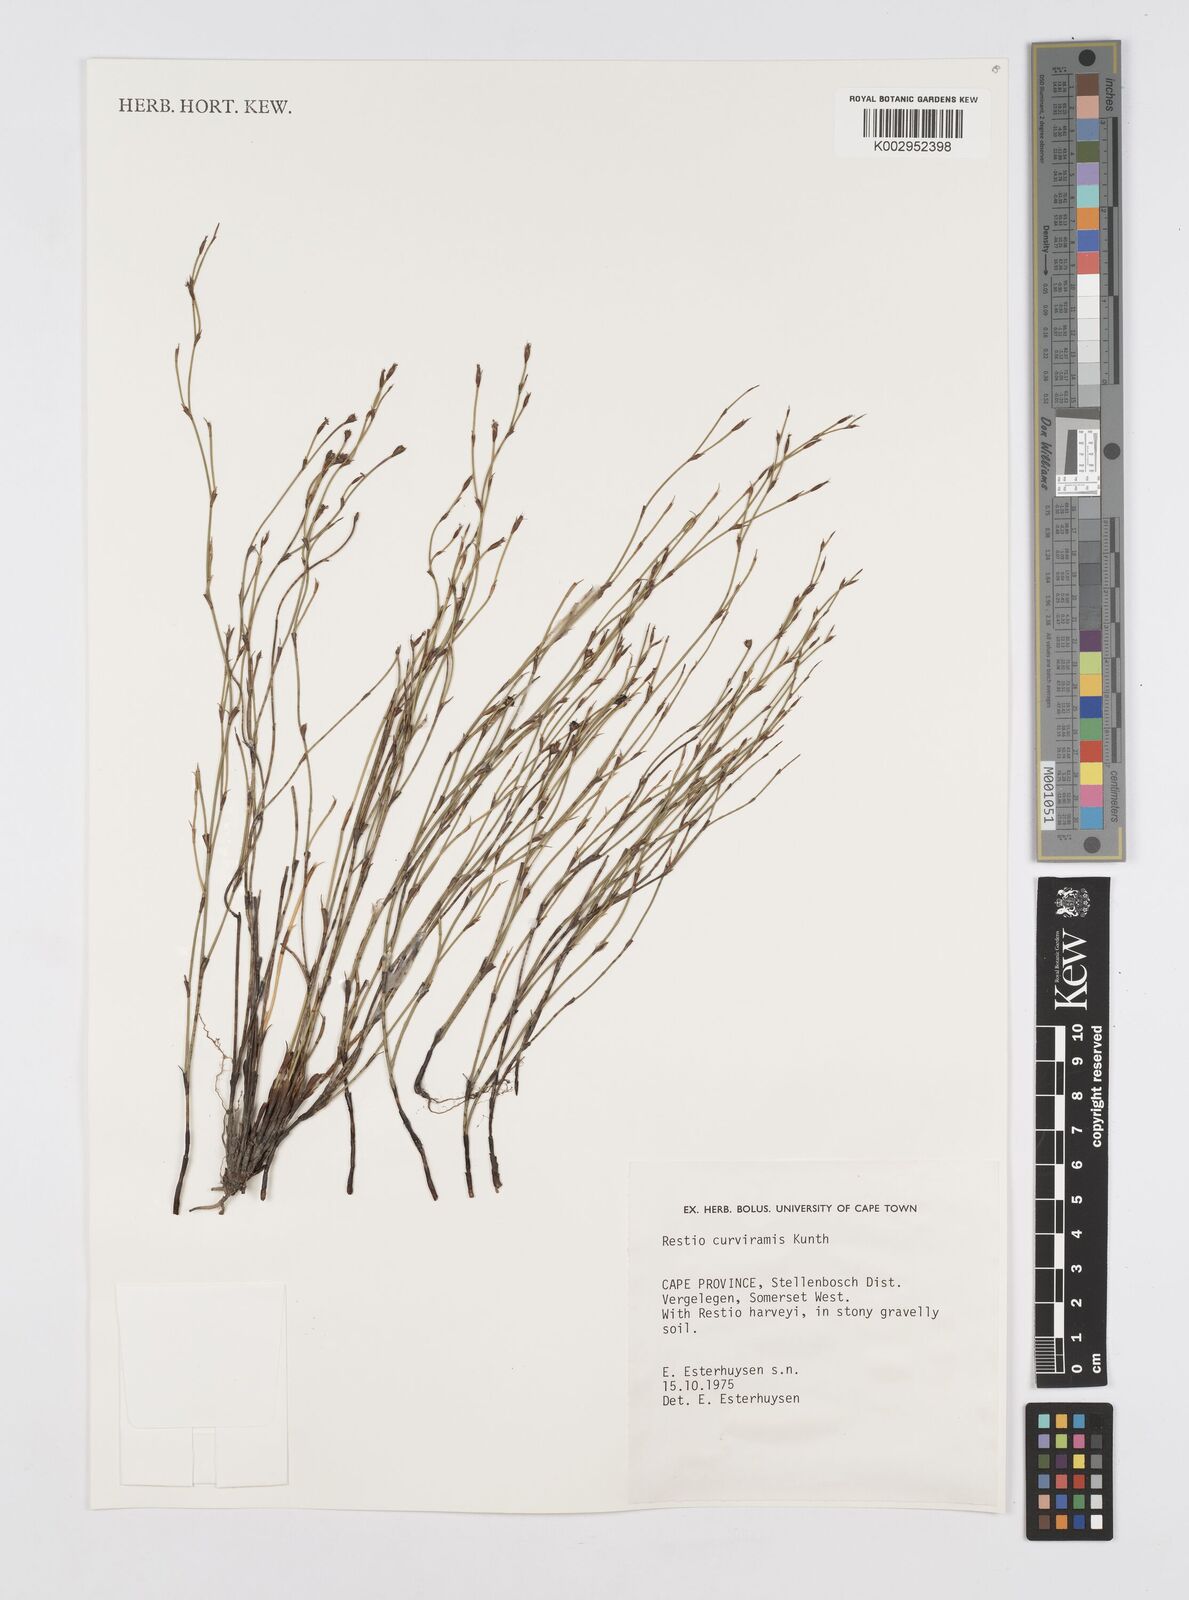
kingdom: Plantae
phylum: Tracheophyta
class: Liliopsida
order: Poales
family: Restionaceae
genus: Restio
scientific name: Restio curviramis
